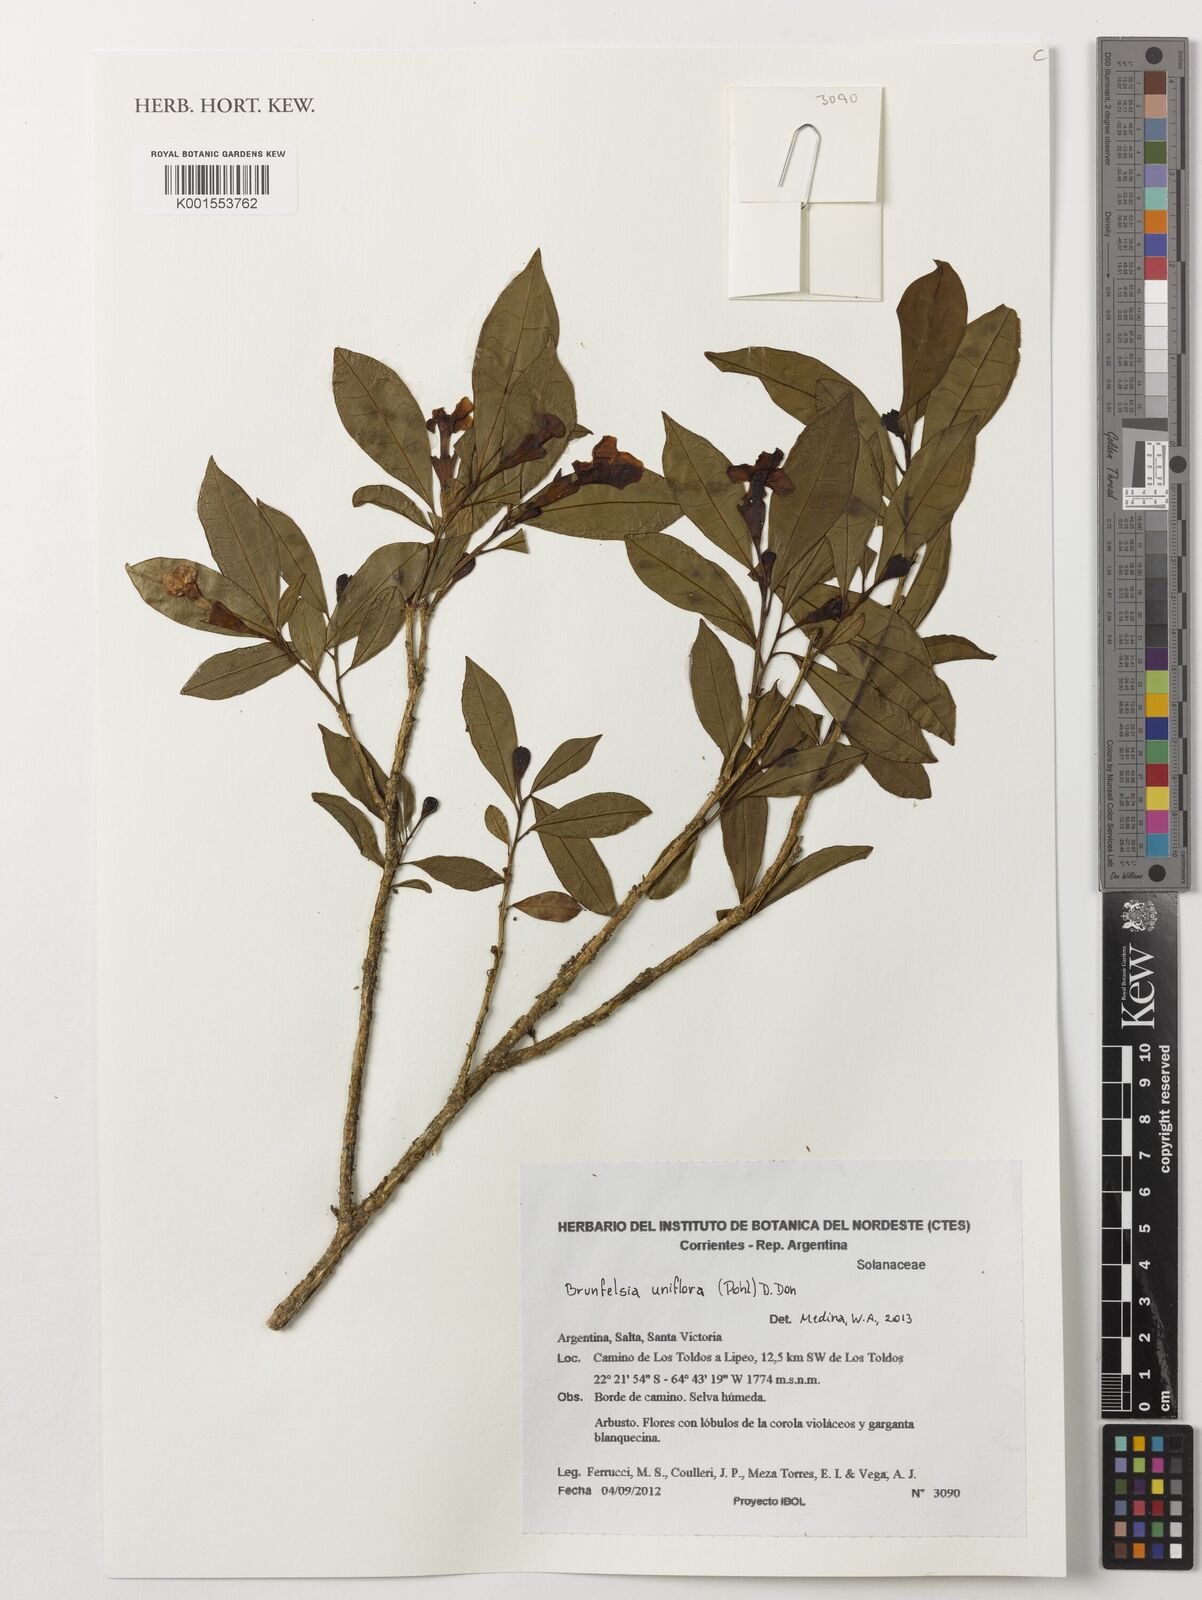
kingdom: Plantae
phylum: Tracheophyta
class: Magnoliopsida
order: Solanales
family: Solanaceae
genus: Brunfelsia
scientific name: Brunfelsia uniflora
